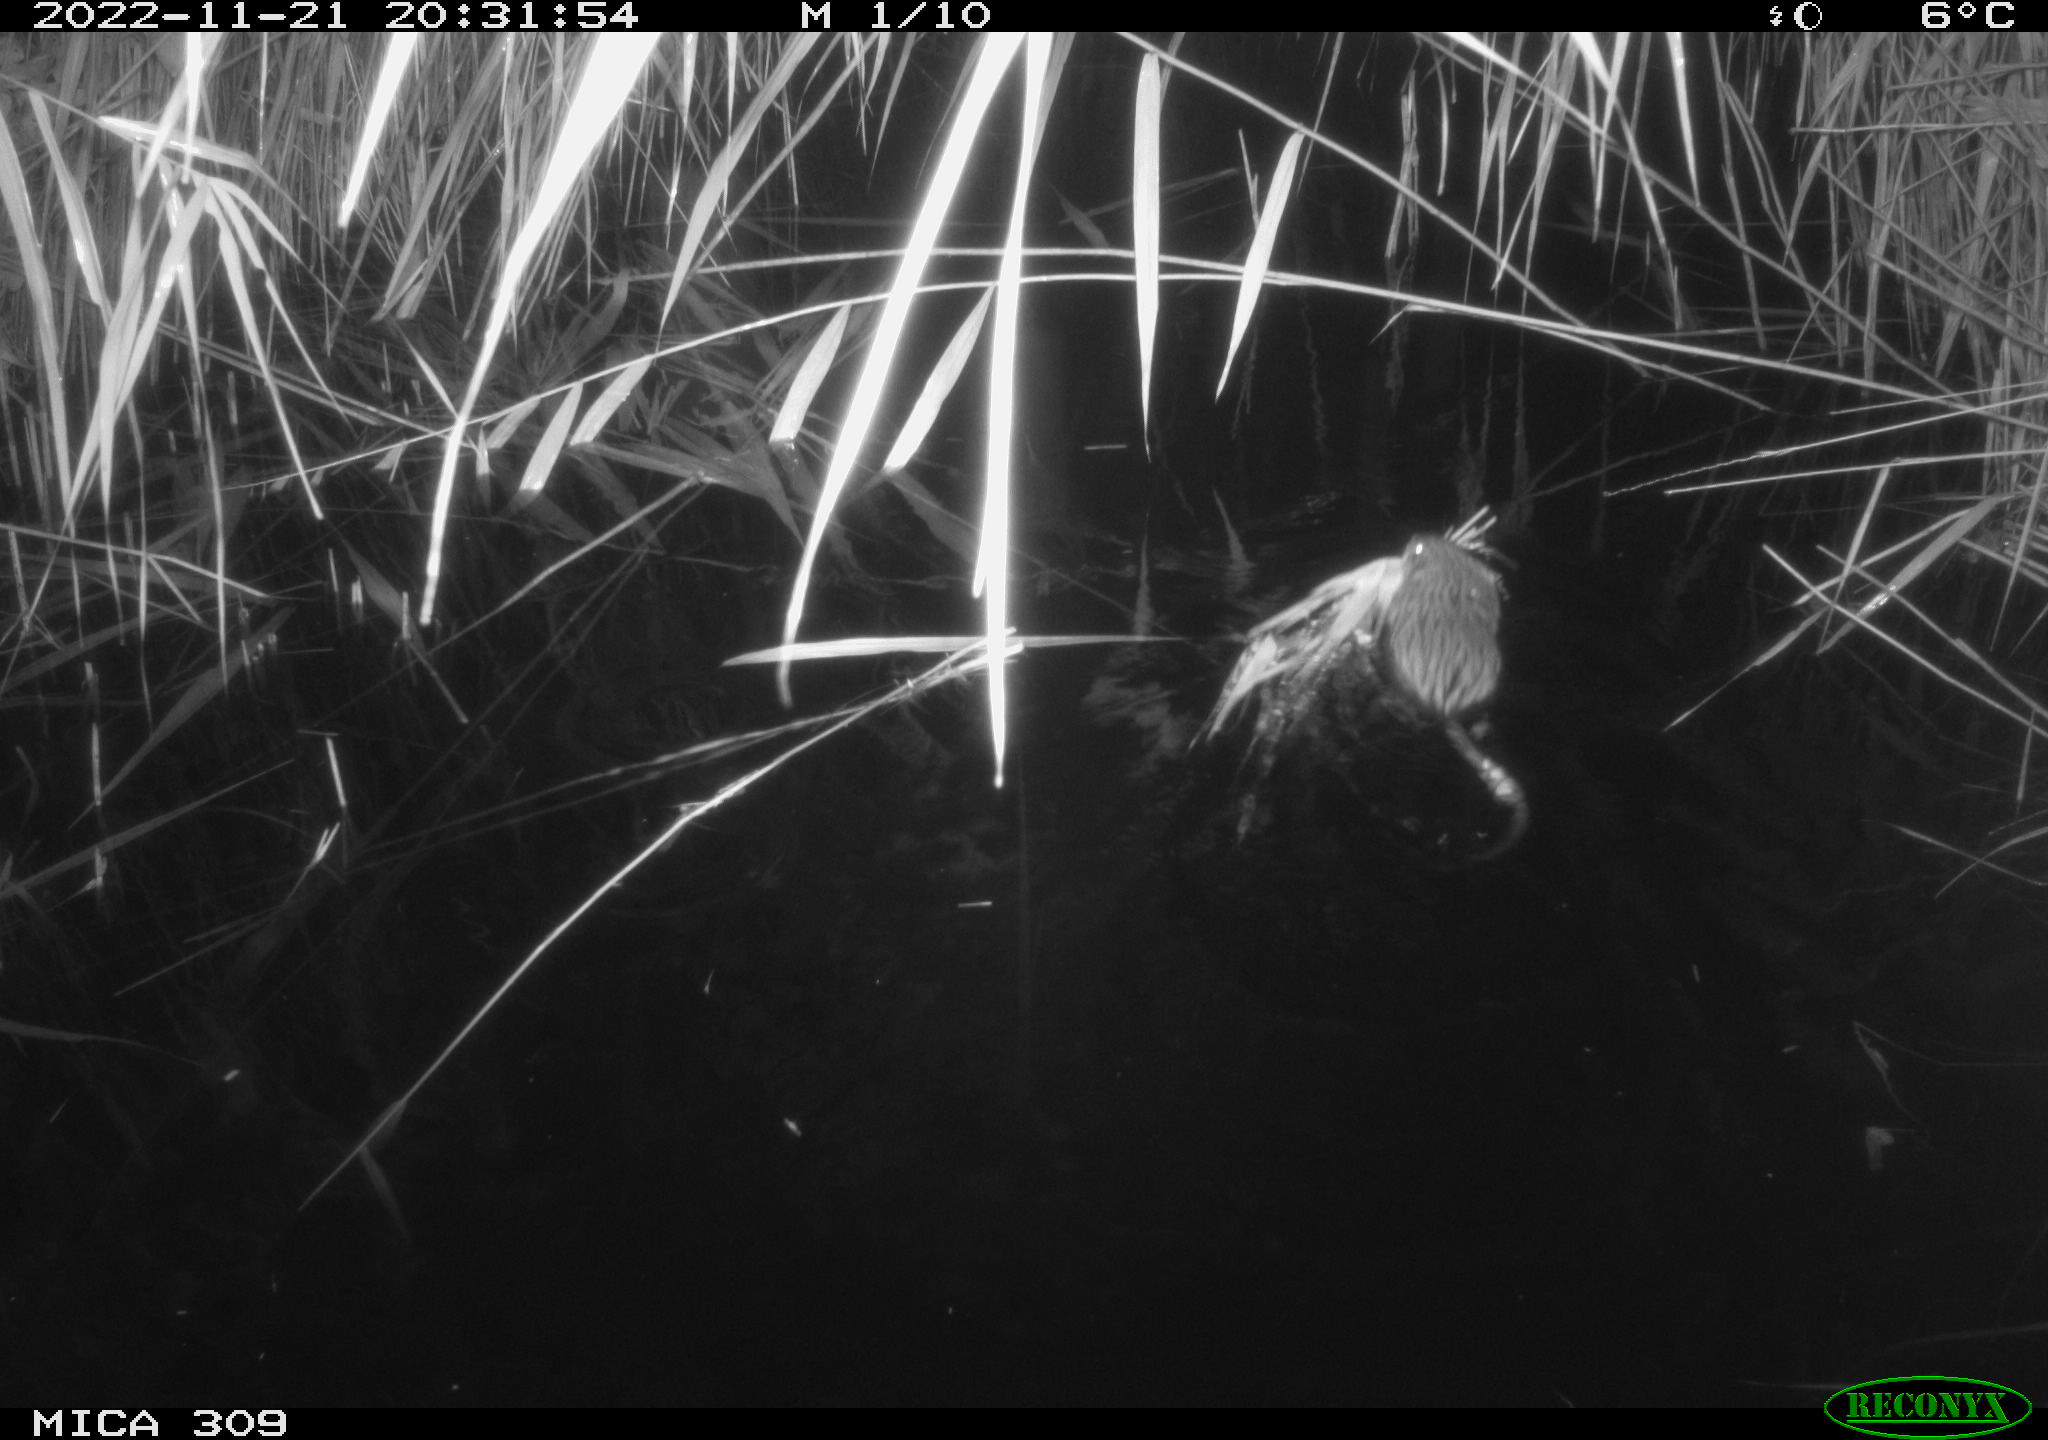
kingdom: Animalia
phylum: Chordata
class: Mammalia
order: Rodentia
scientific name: Rodentia
